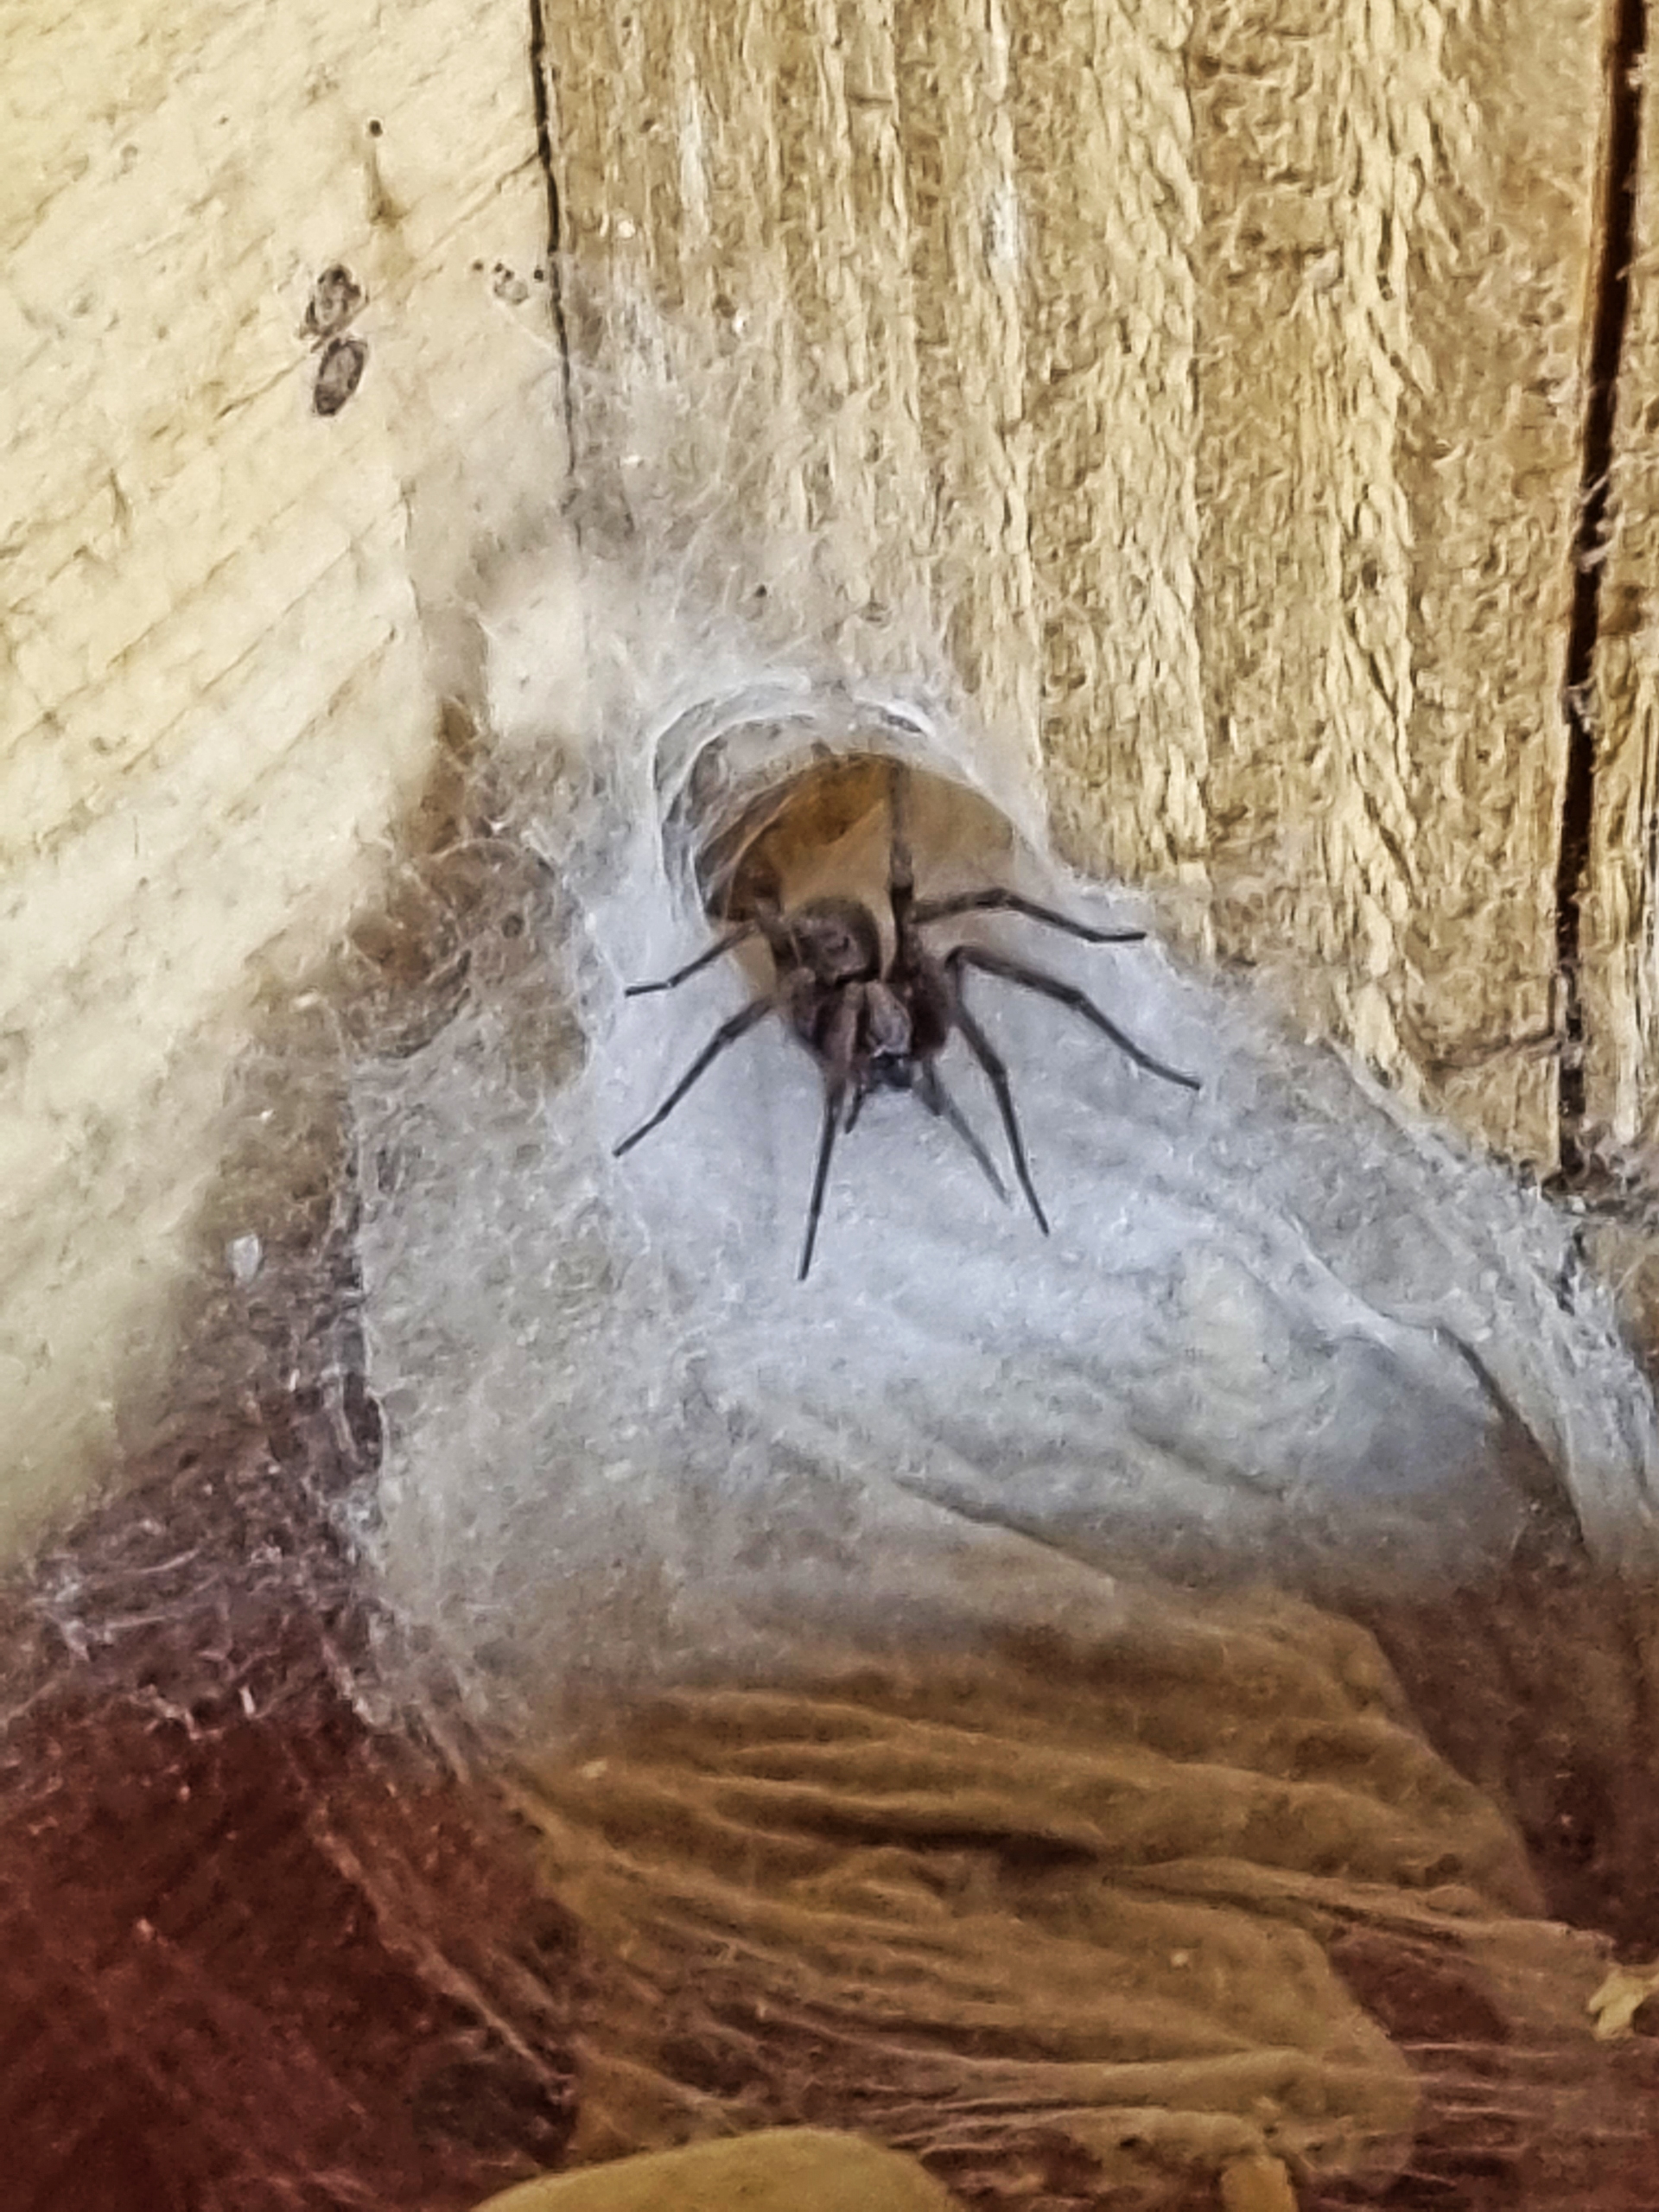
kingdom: Animalia
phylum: Arthropoda
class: Arachnida
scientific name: Arachnida
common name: Spindlere
